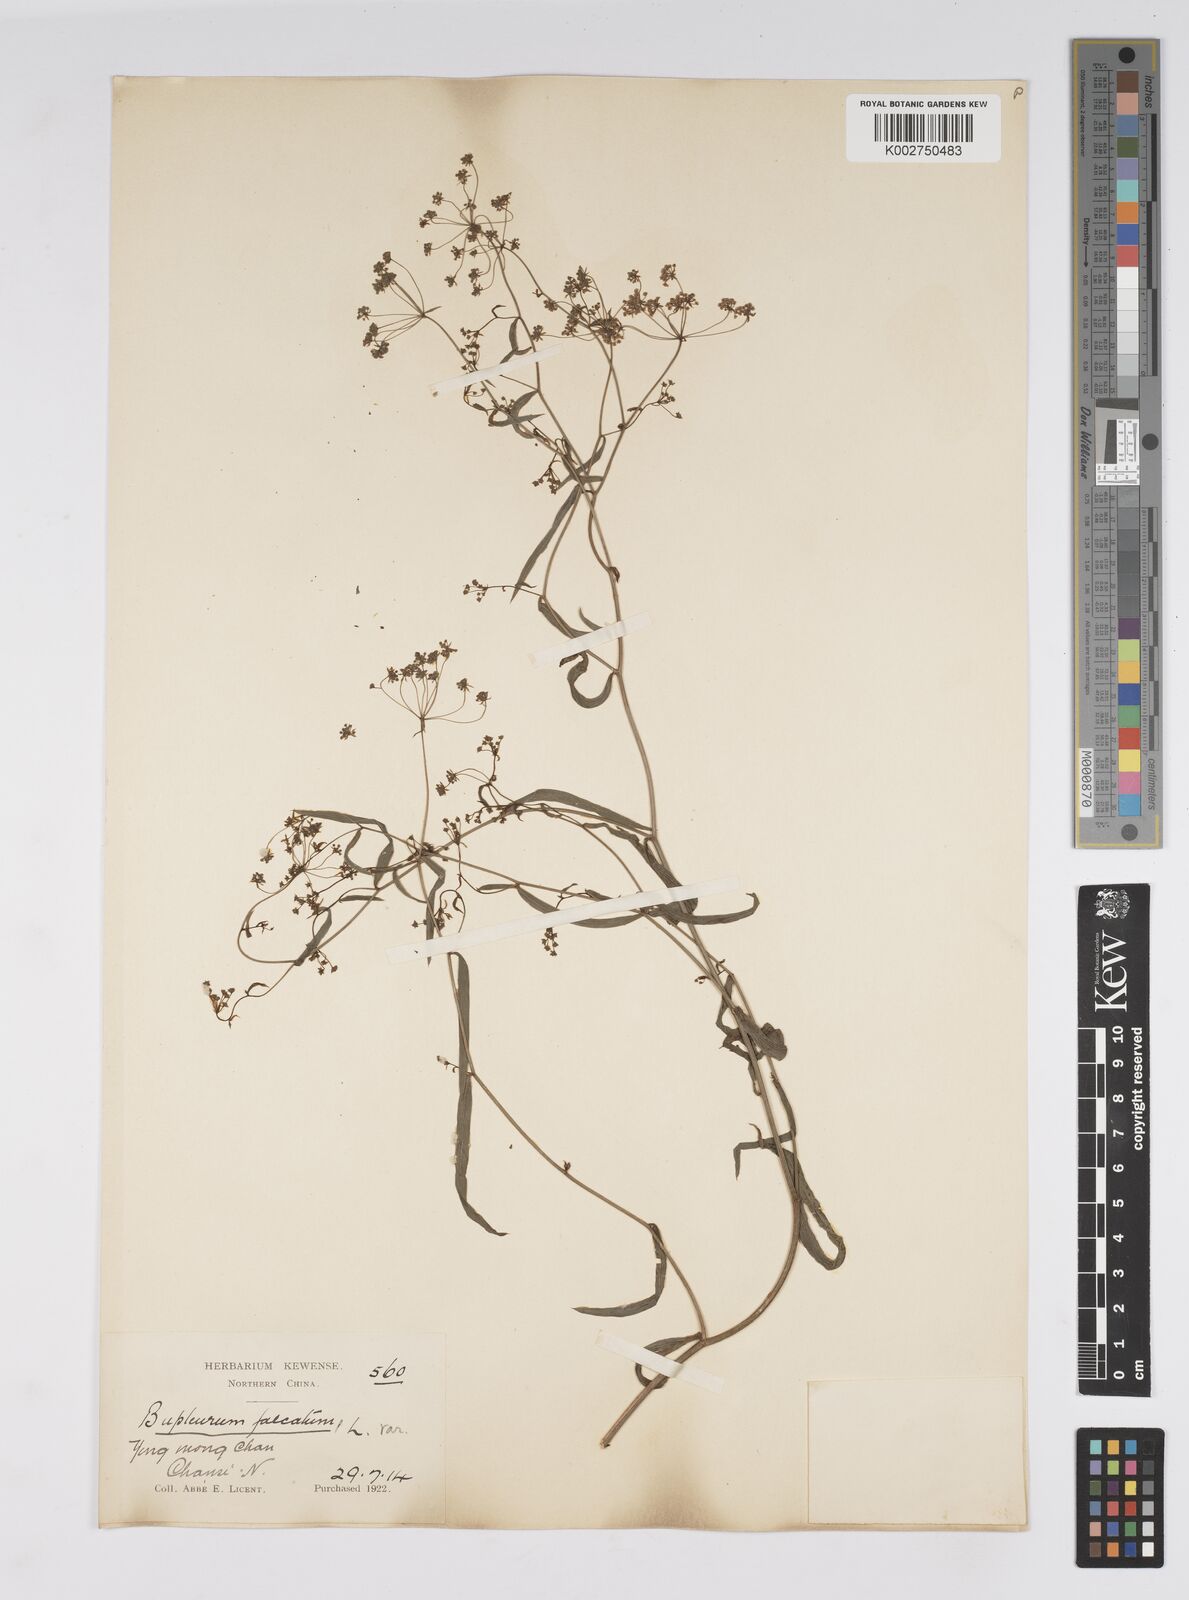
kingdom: Plantae
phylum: Tracheophyta
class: Magnoliopsida
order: Apiales
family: Apiaceae
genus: Bupleurum
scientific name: Bupleurum krylovianum
